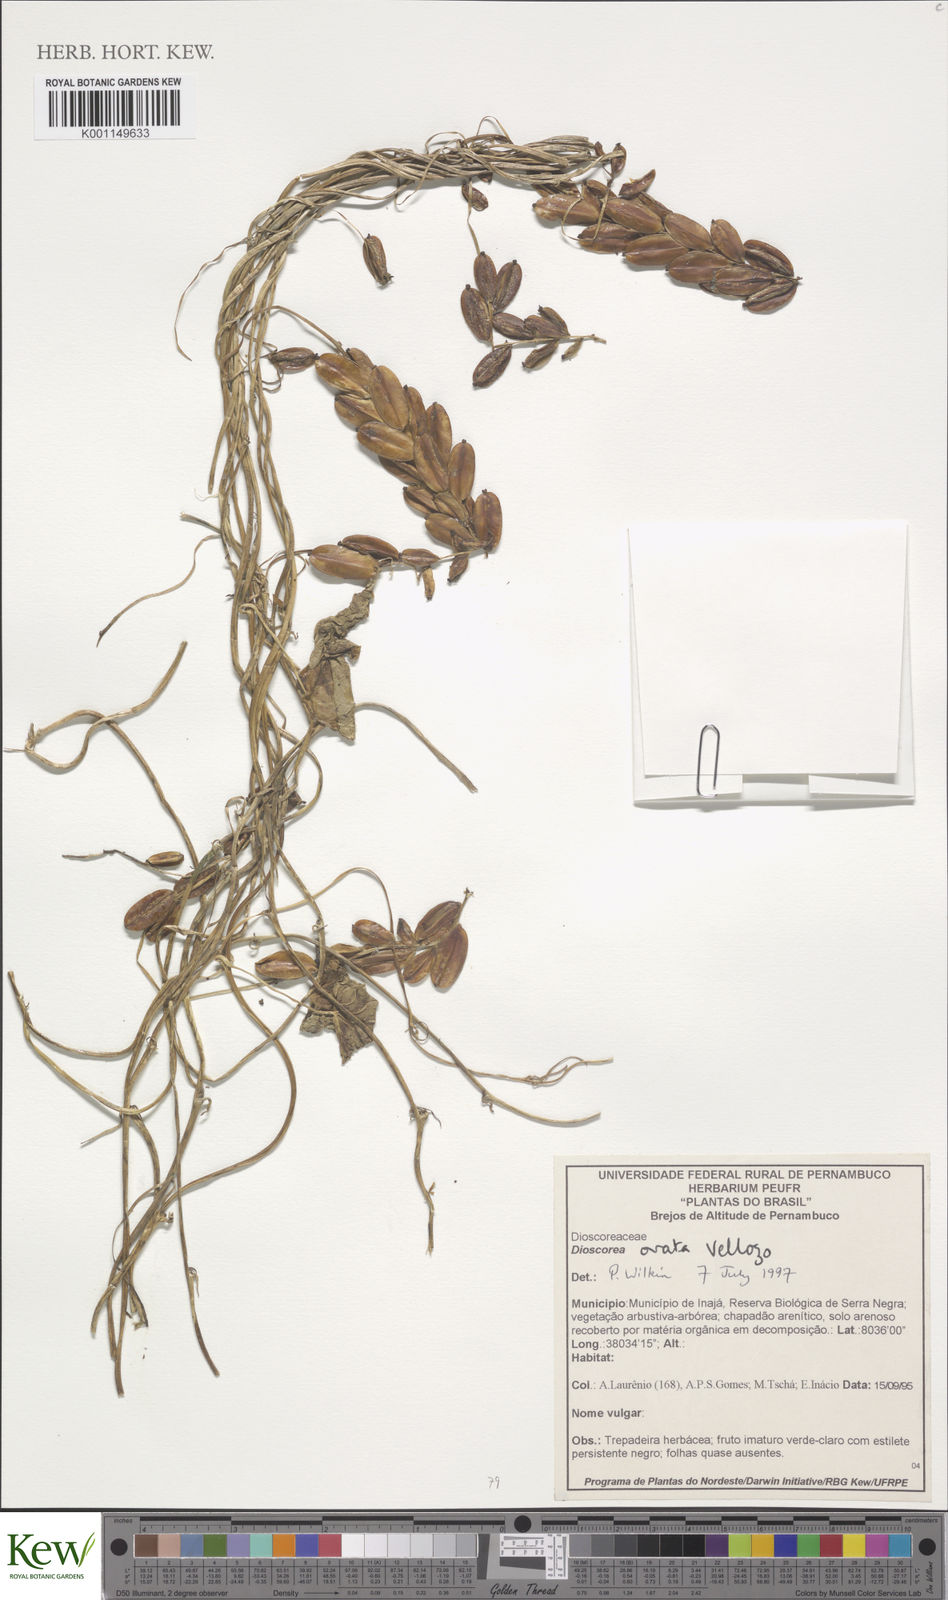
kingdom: Plantae
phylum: Tracheophyta
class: Liliopsida
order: Dioscoreales
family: Dioscoreaceae
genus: Dioscorea
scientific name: Dioscorea glandulosa
